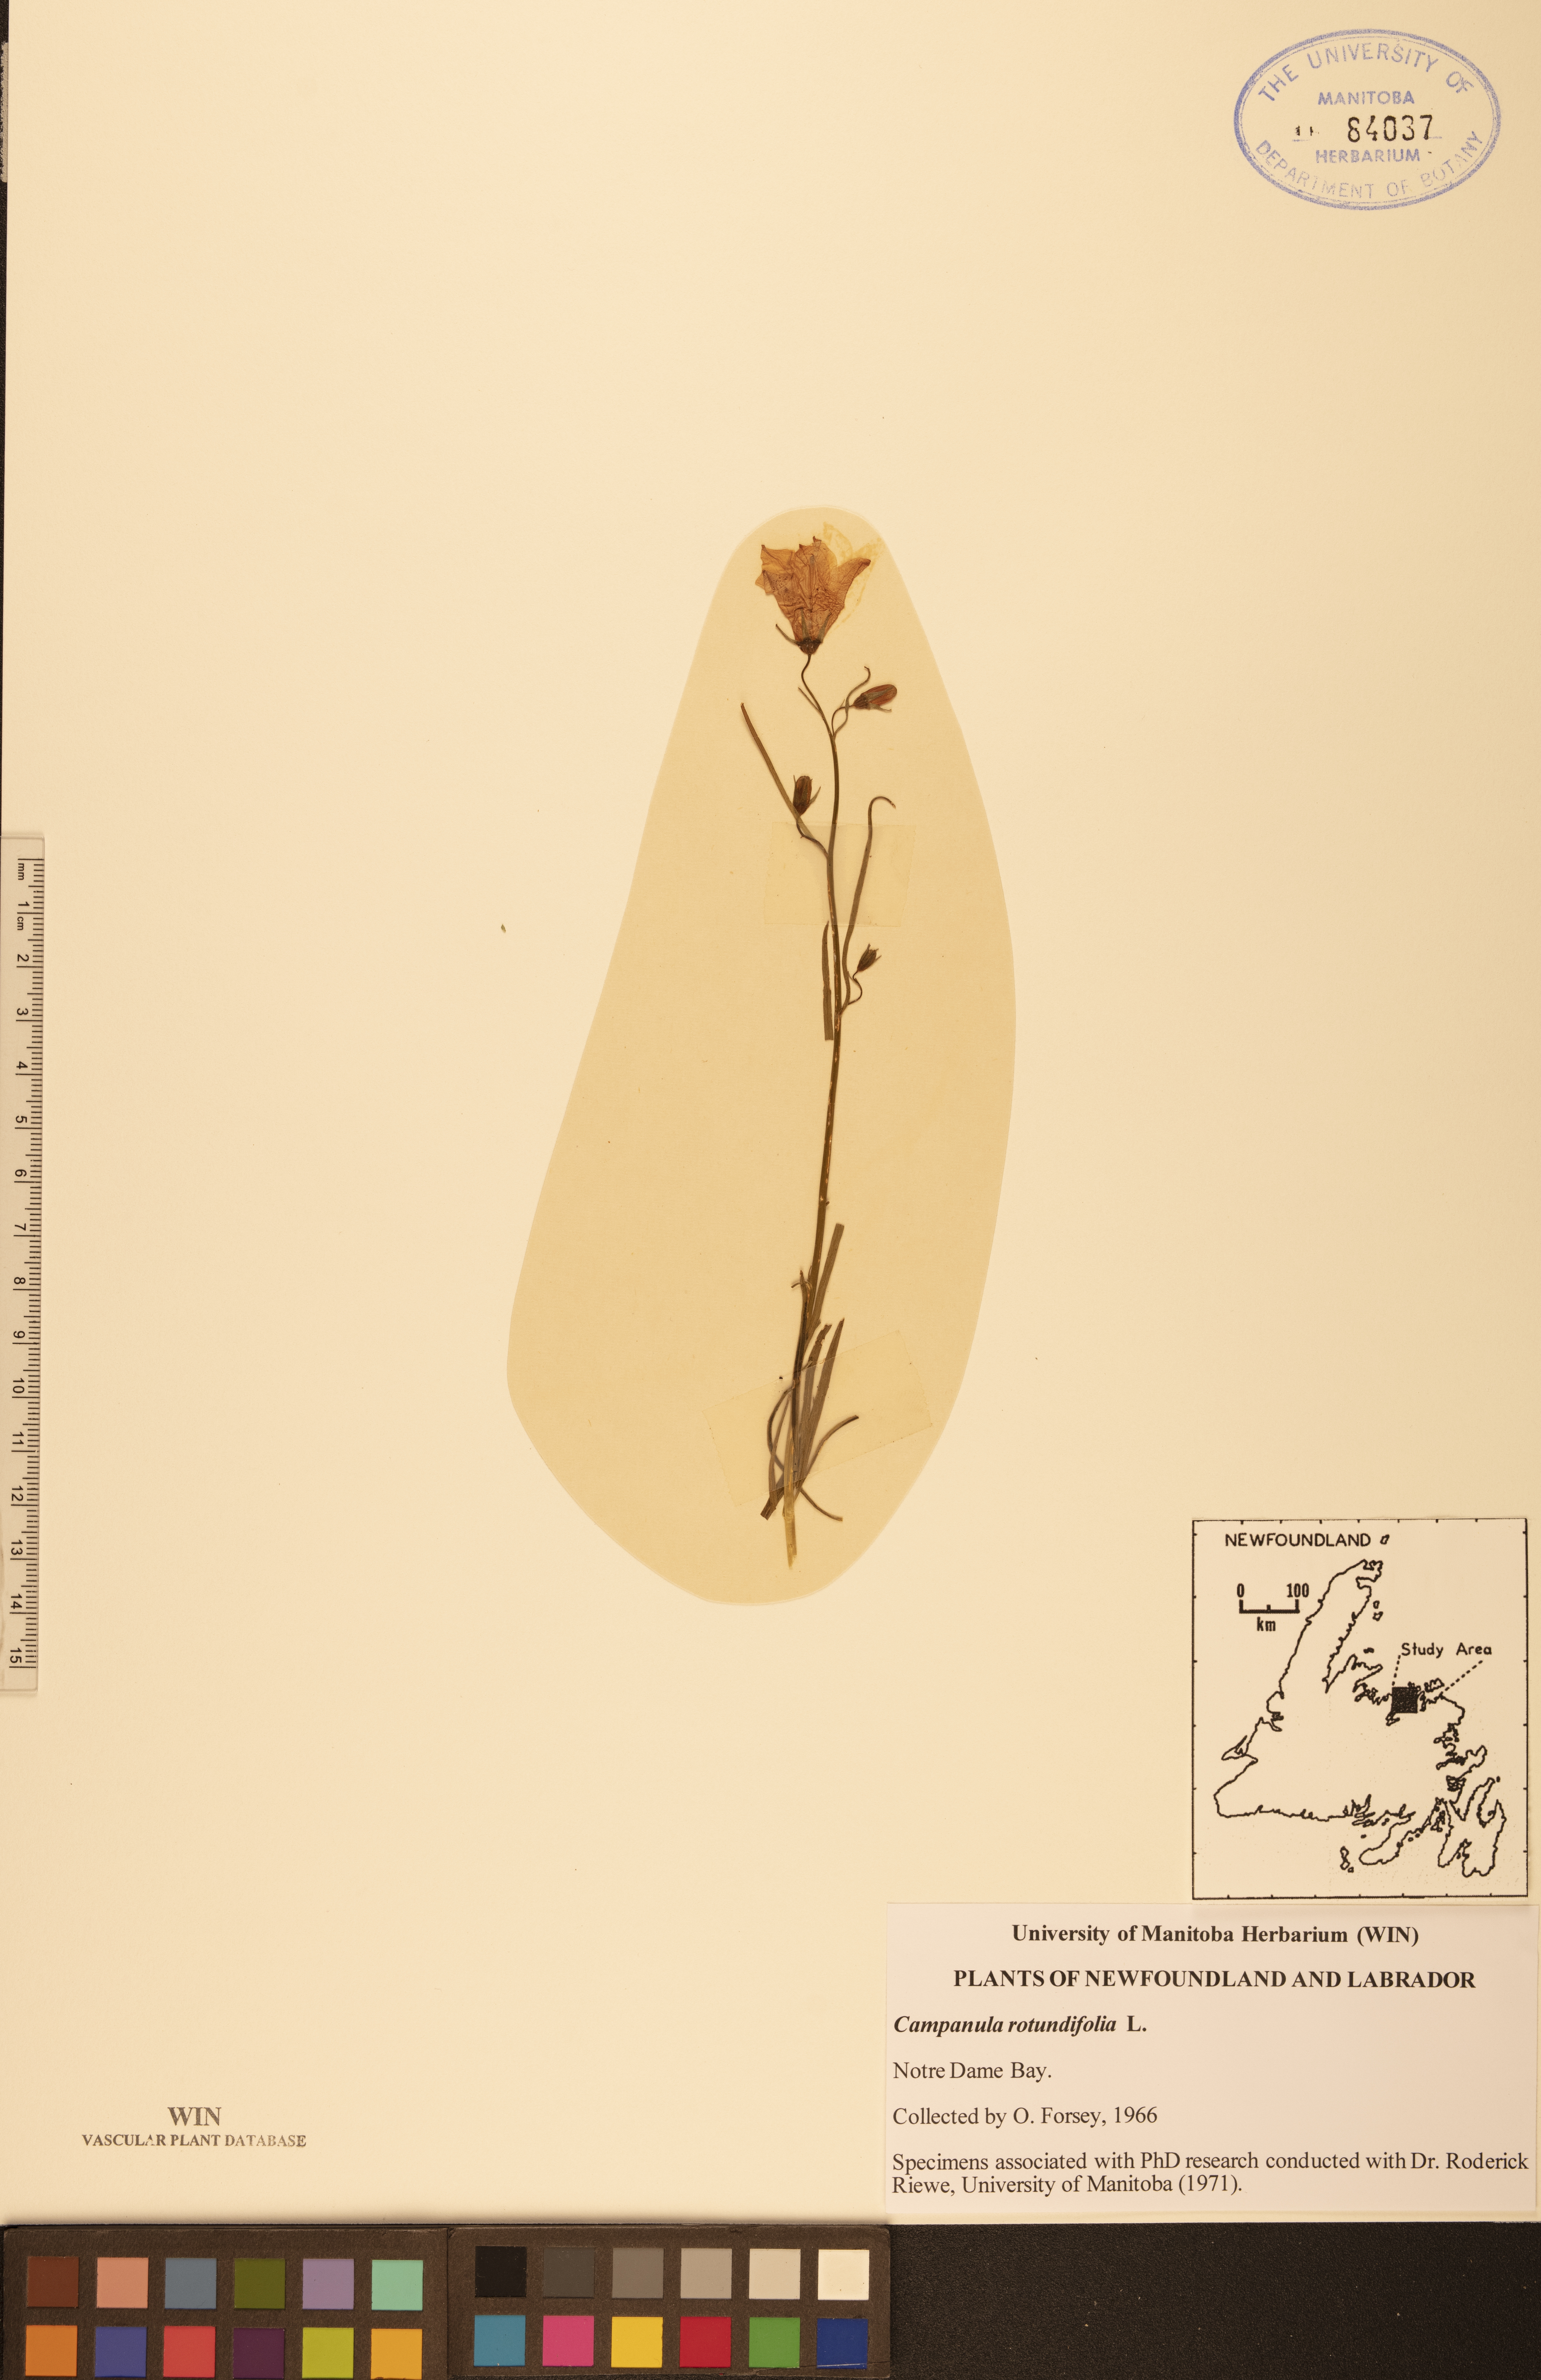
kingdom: Plantae
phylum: Tracheophyta
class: Magnoliopsida
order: Asterales
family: Campanulaceae
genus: Campanula
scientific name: Campanula rotundifolia
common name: Harebell
